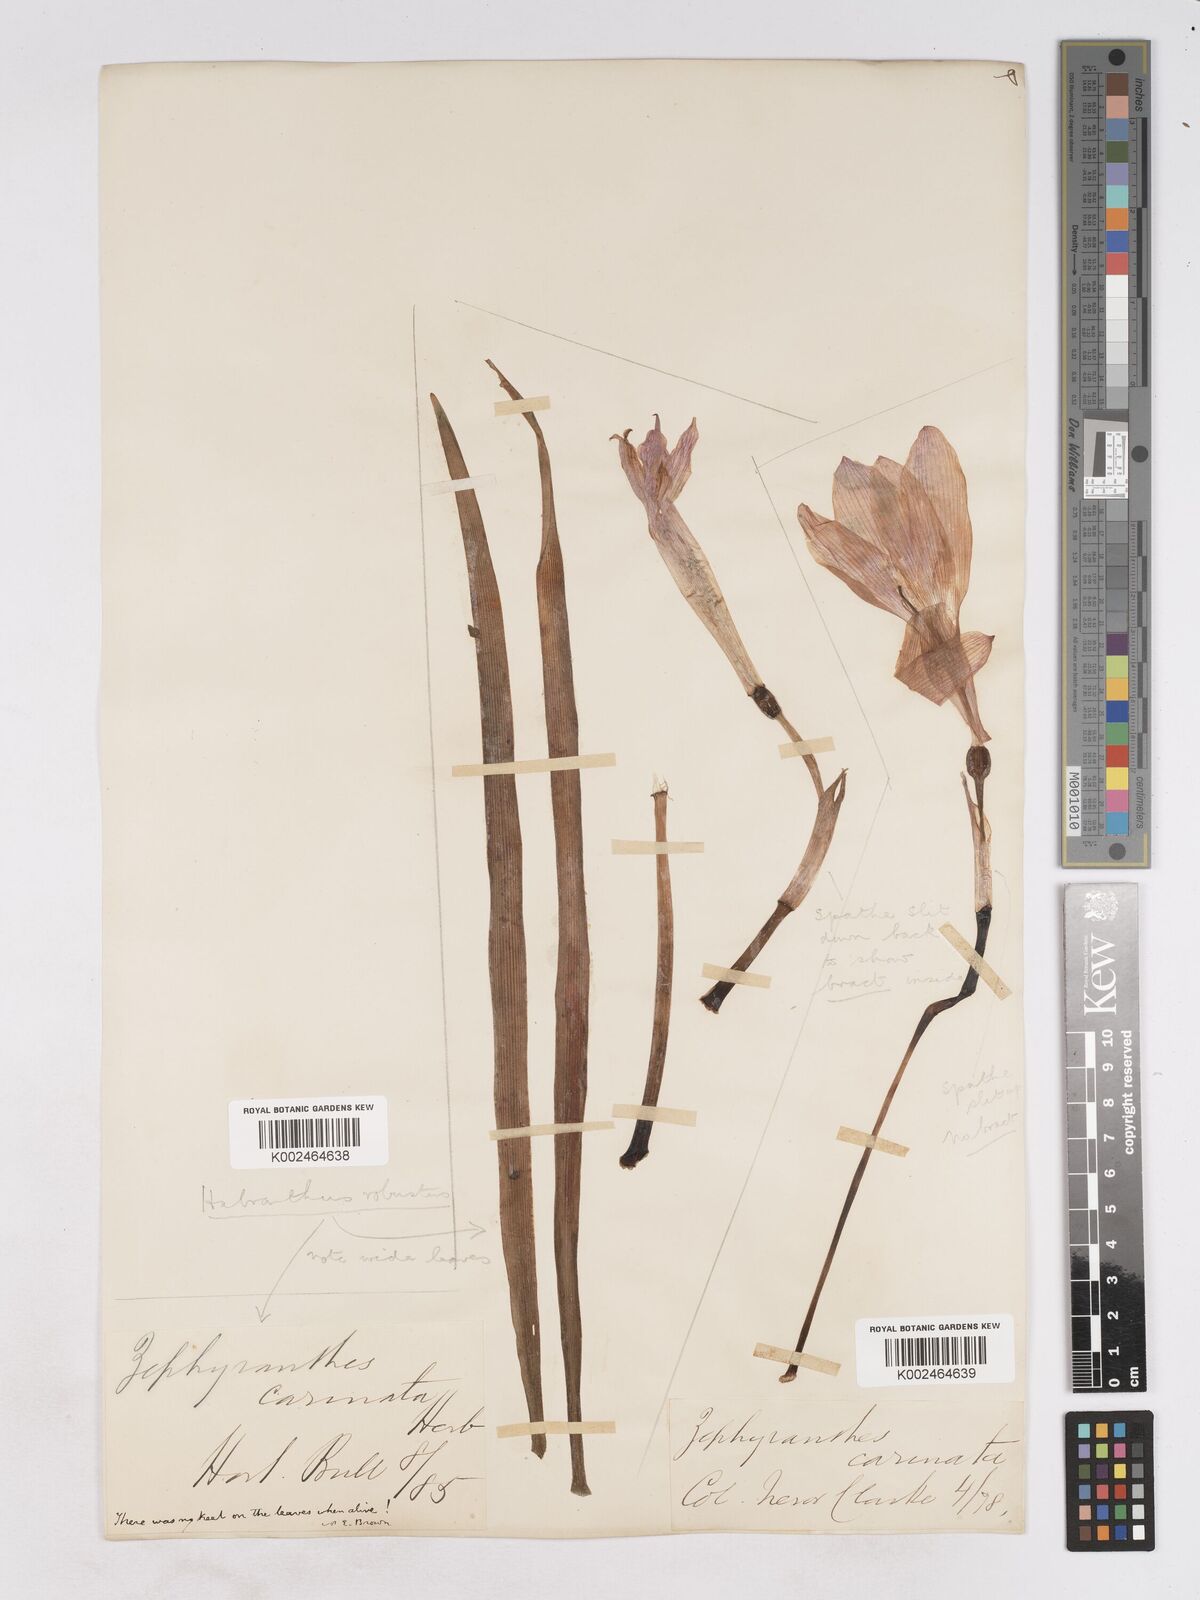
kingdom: Plantae
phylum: Tracheophyta
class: Liliopsida
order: Asparagales
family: Amaryllidaceae
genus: Zephyranthes
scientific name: Zephyranthes minuta
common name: Pink rain lily
